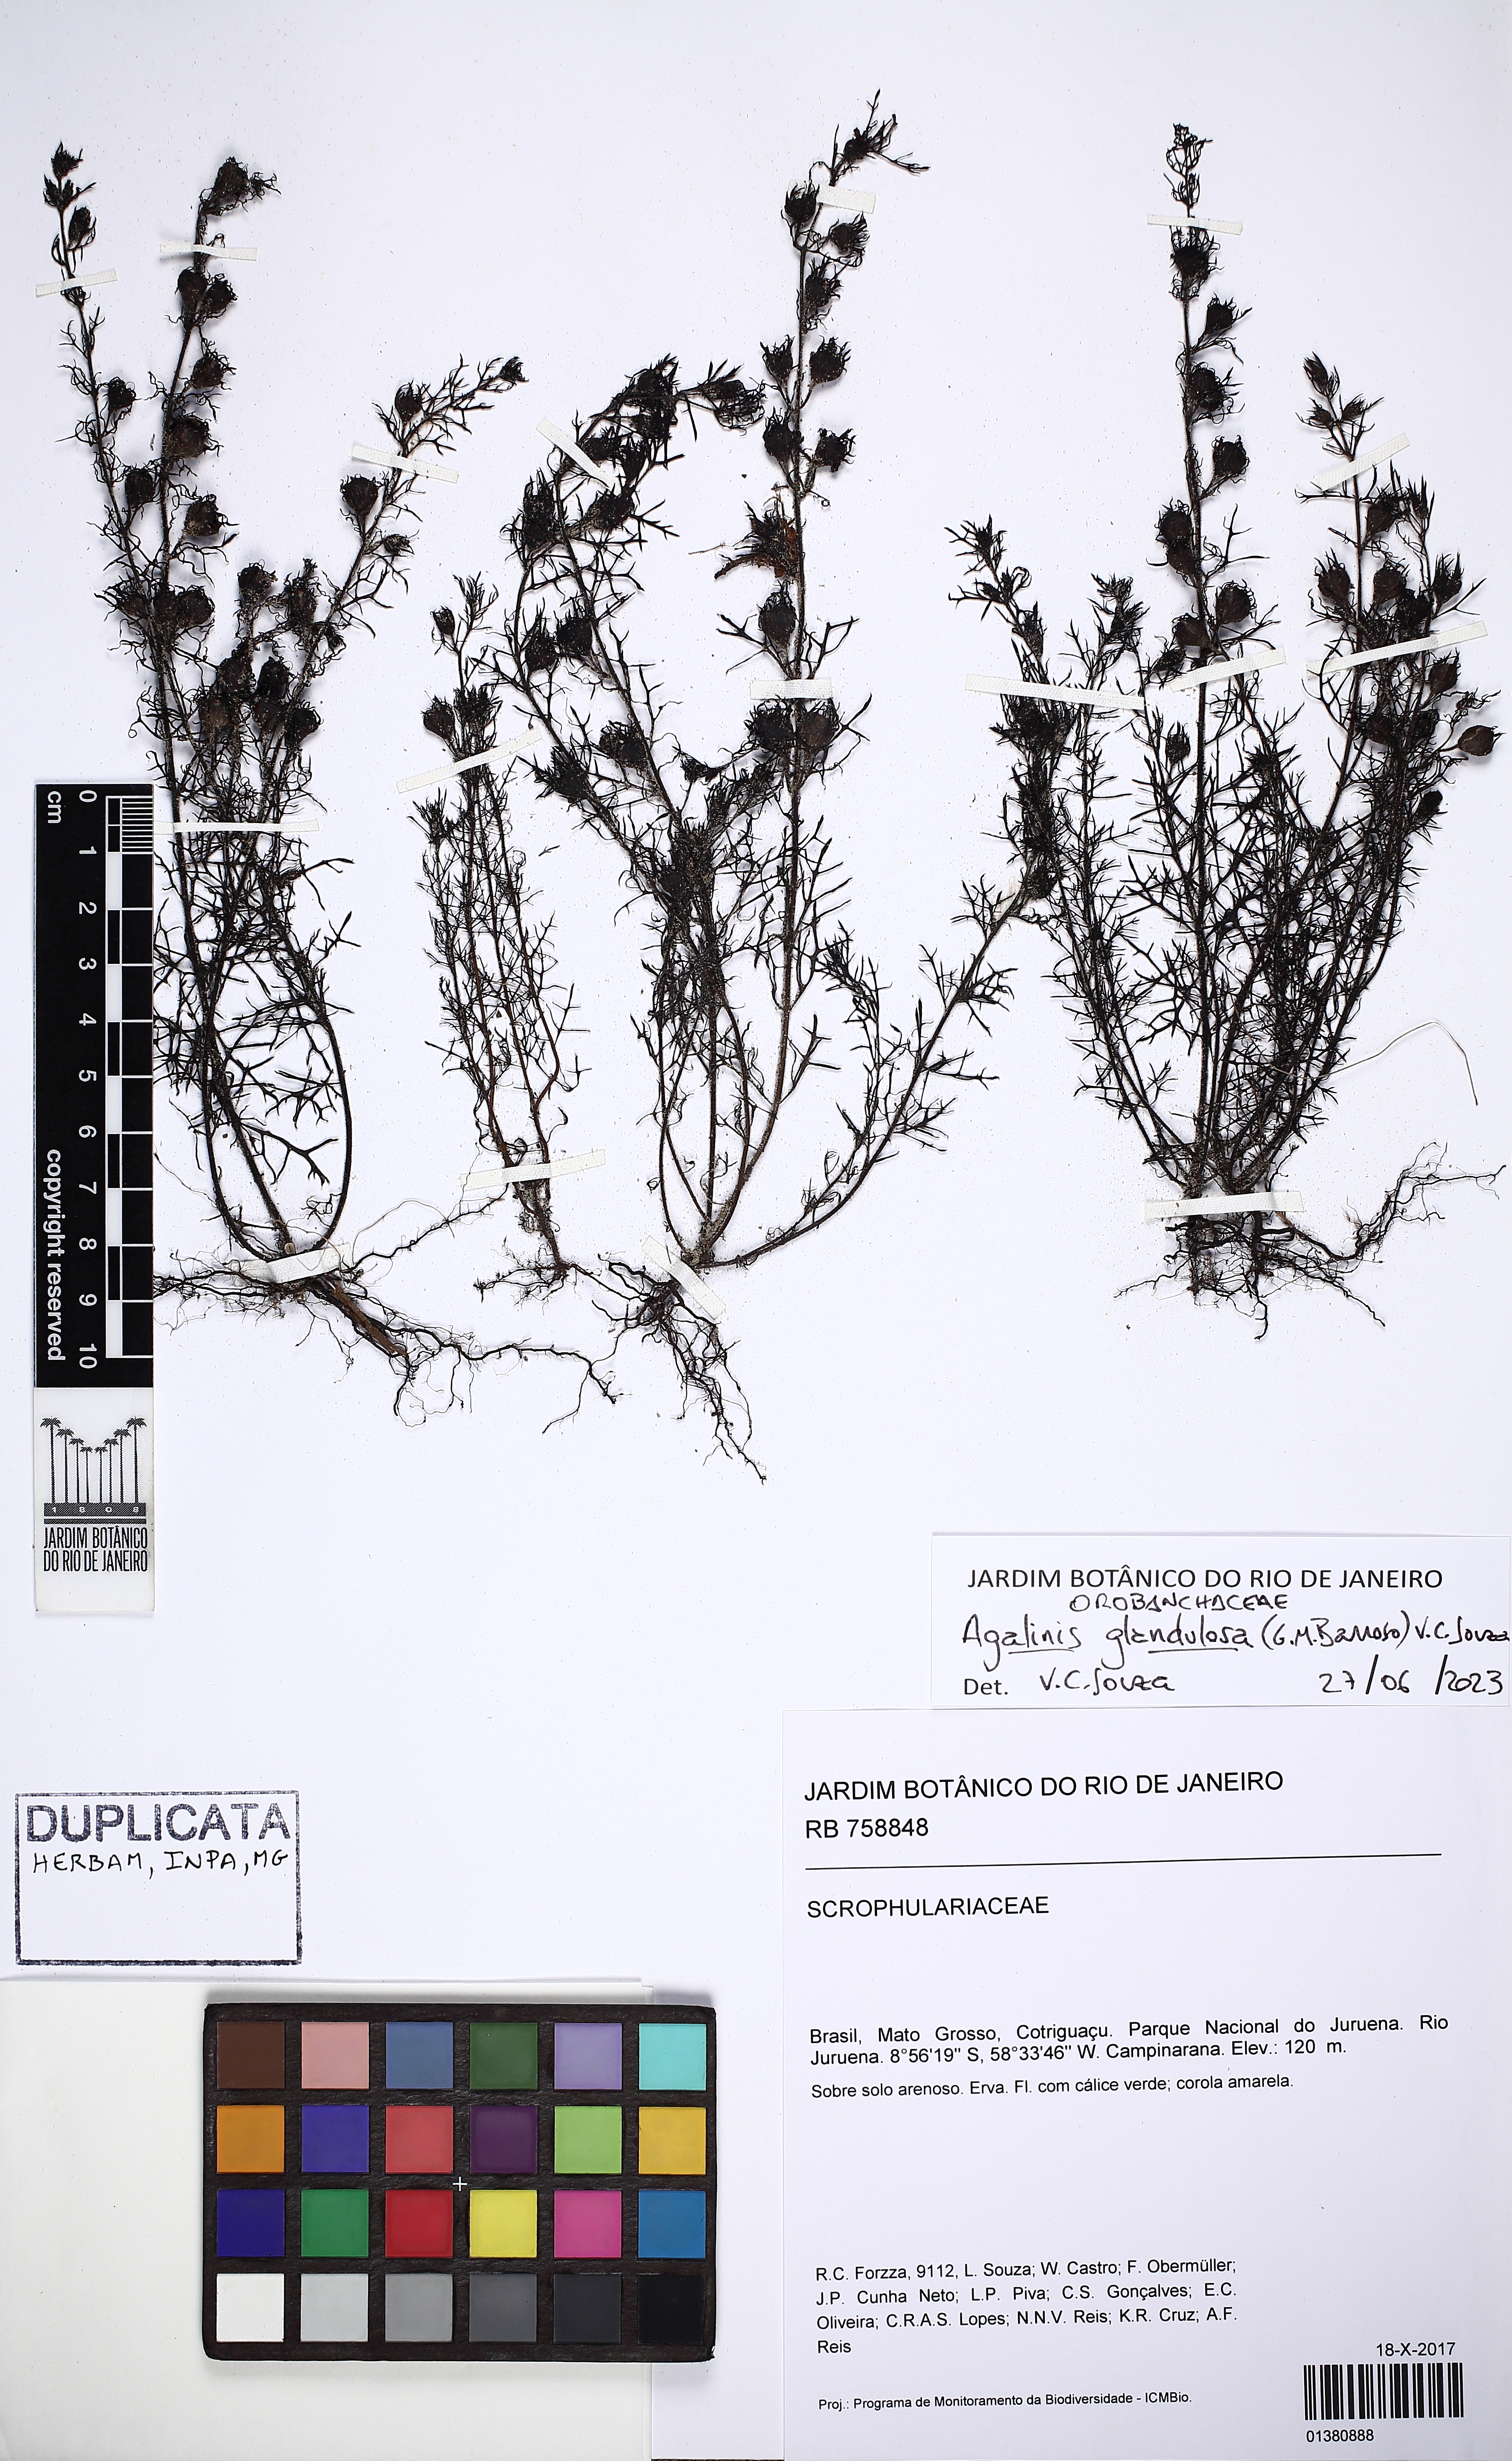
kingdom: Plantae
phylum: Tracheophyta
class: Magnoliopsida
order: Lamiales
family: Orobanchaceae
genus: Agalinis
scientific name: Agalinis glandulosa
